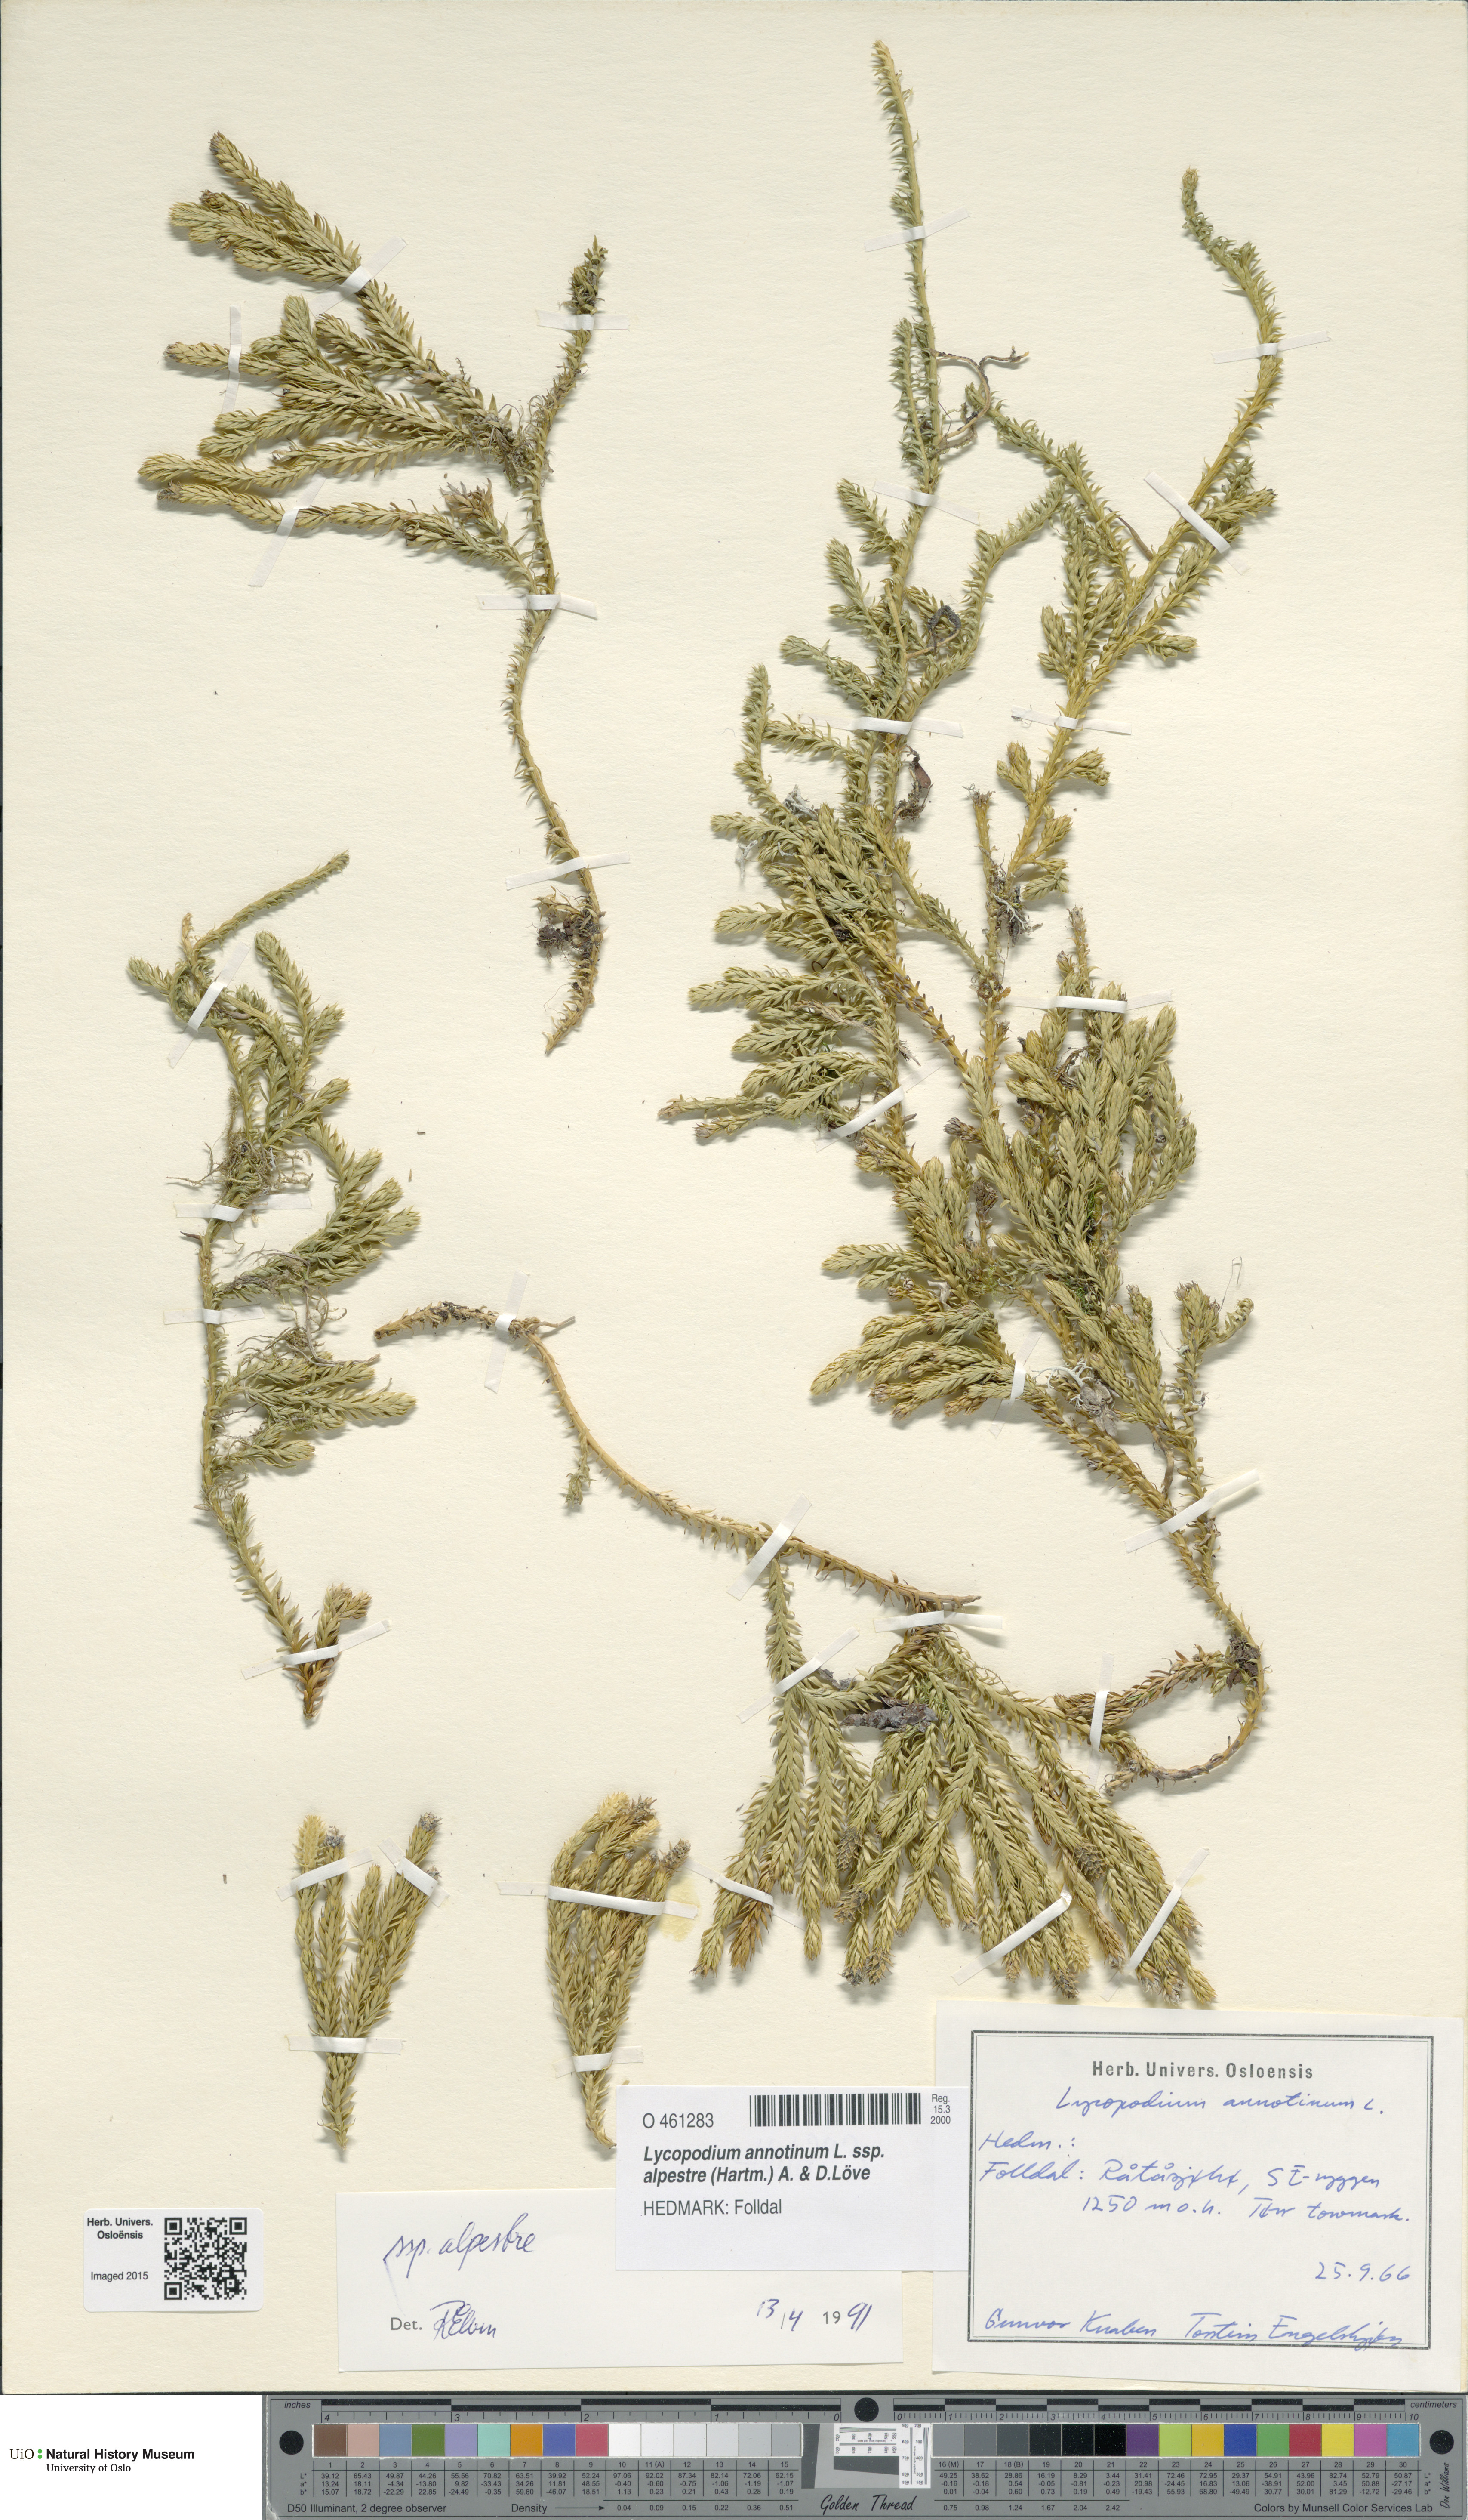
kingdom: Plantae
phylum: Tracheophyta
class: Lycopodiopsida
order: Lycopodiales
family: Lycopodiaceae
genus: Spinulum
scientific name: Spinulum annotinum
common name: Interrupted club-moss
